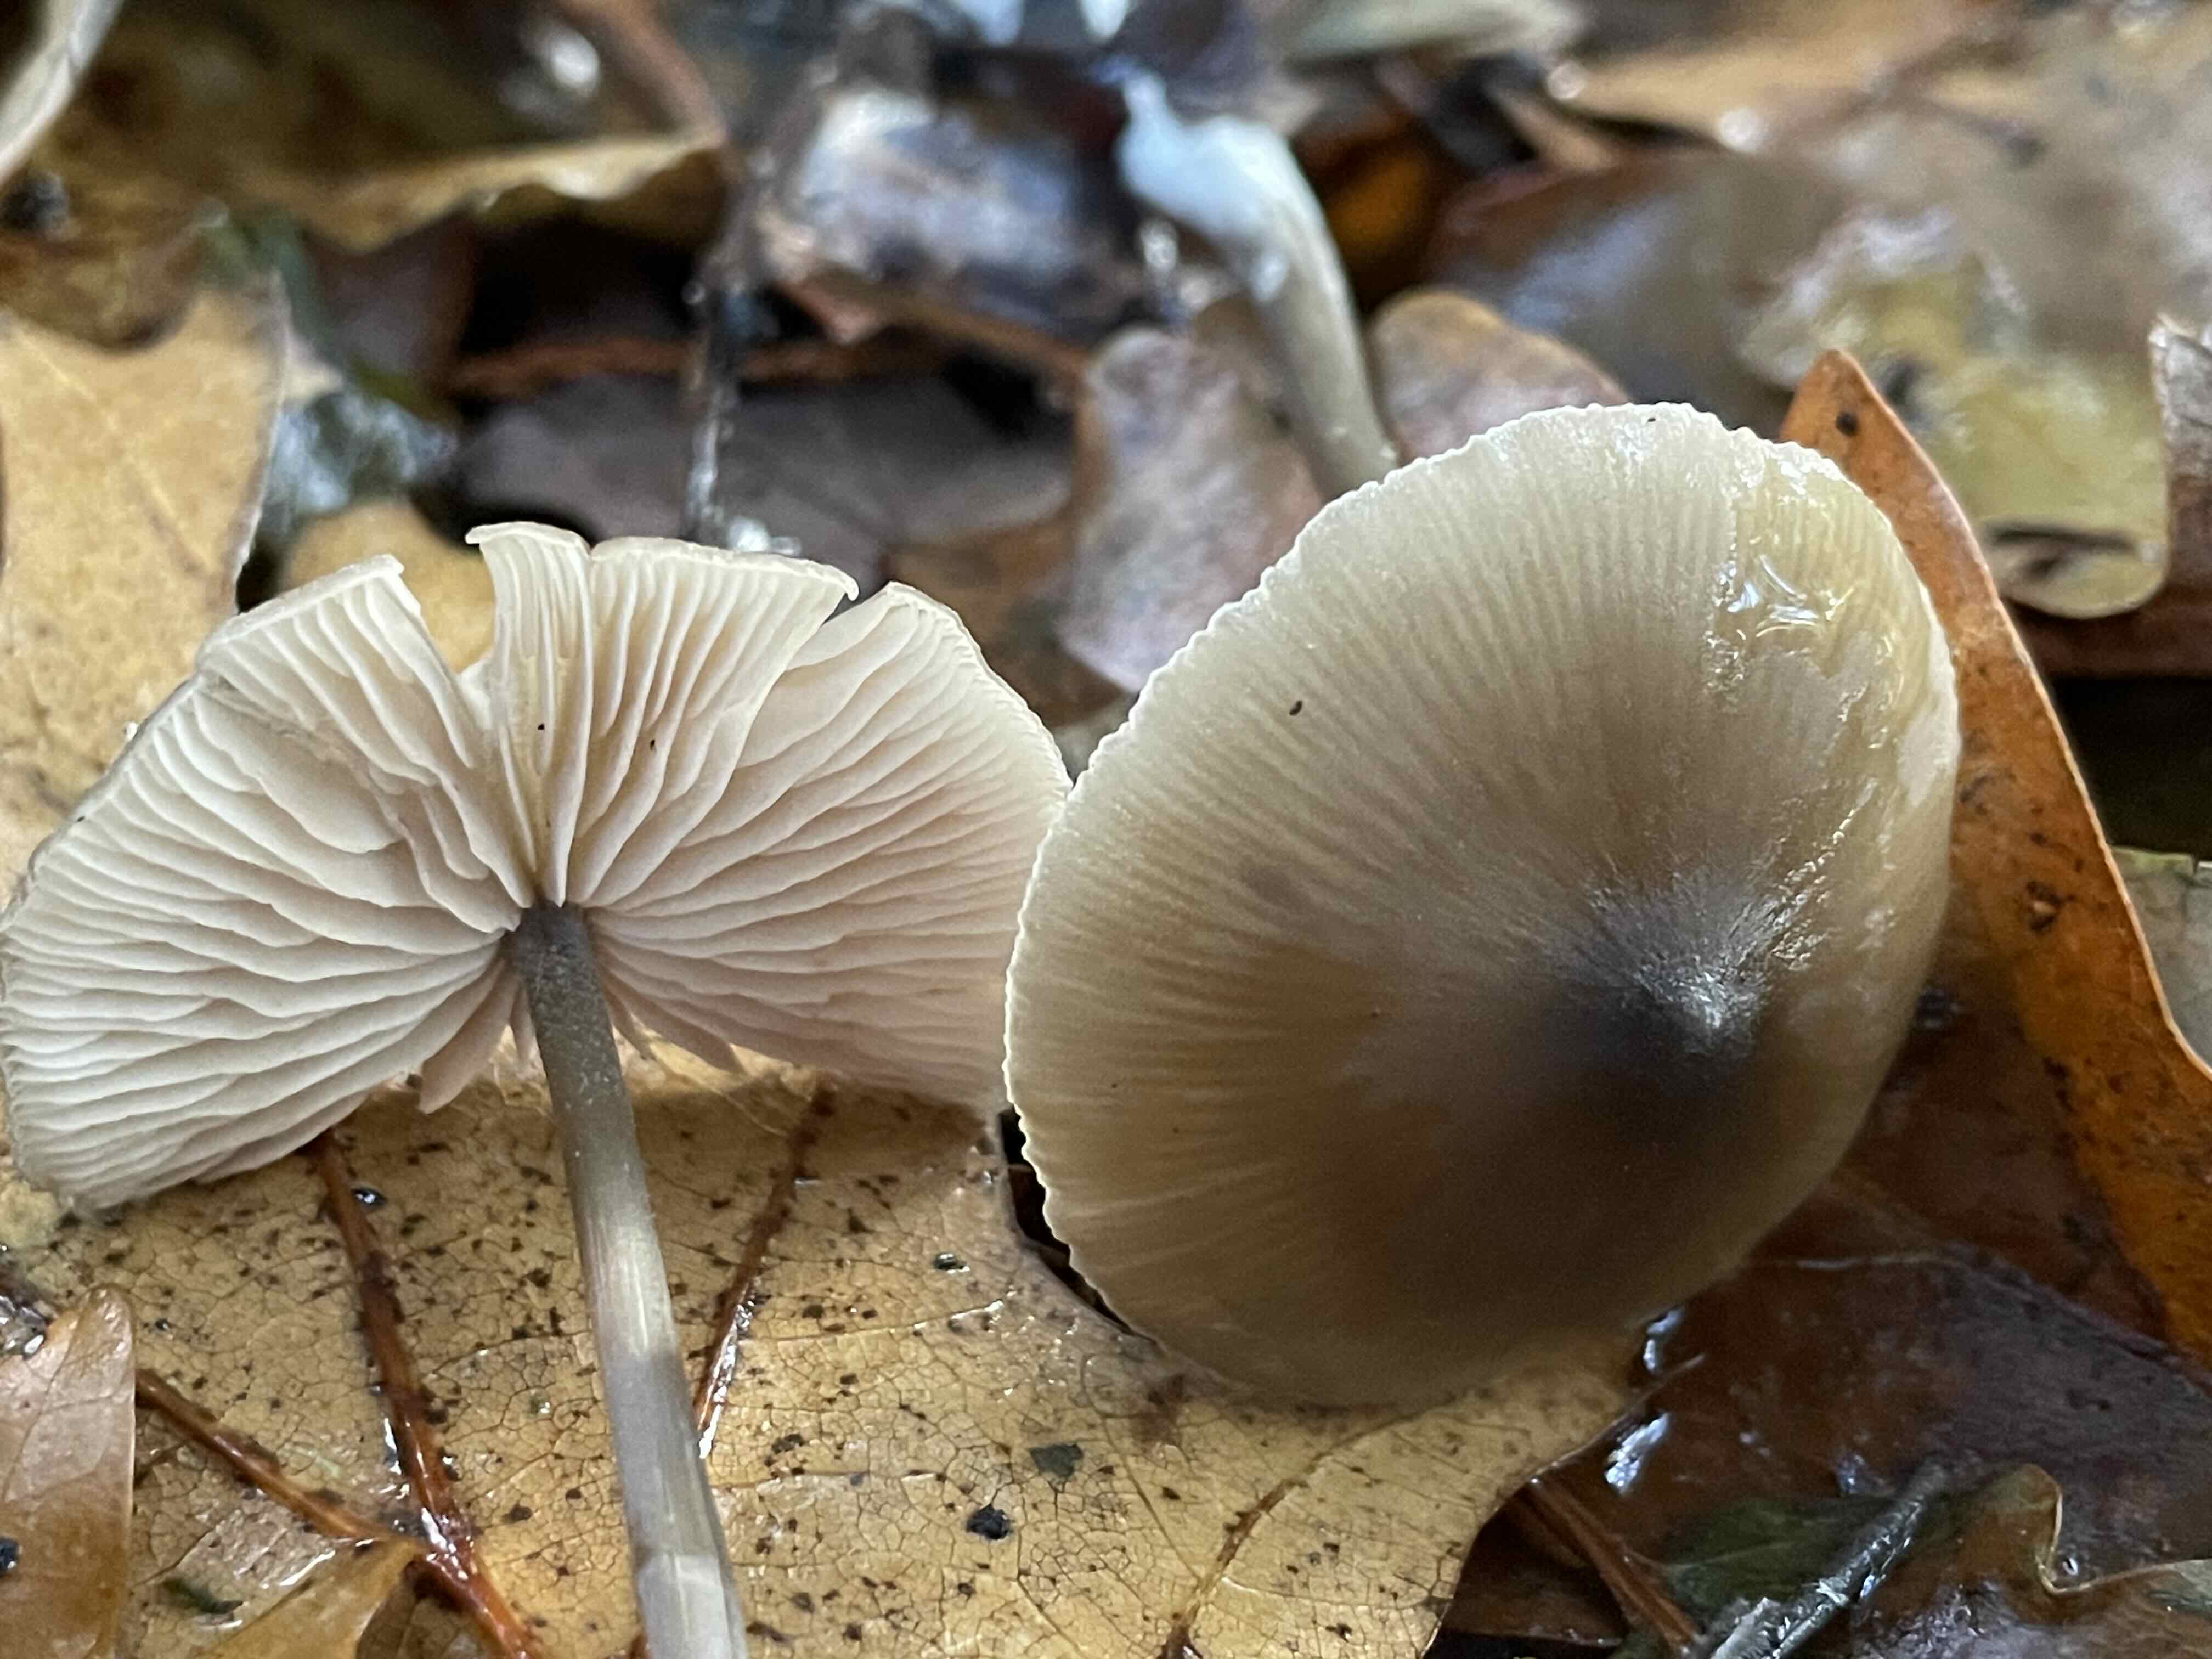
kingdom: Fungi
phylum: Basidiomycota
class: Agaricomycetes
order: Agaricales
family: Entolomataceae
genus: Entoloma
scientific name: Entoloma
